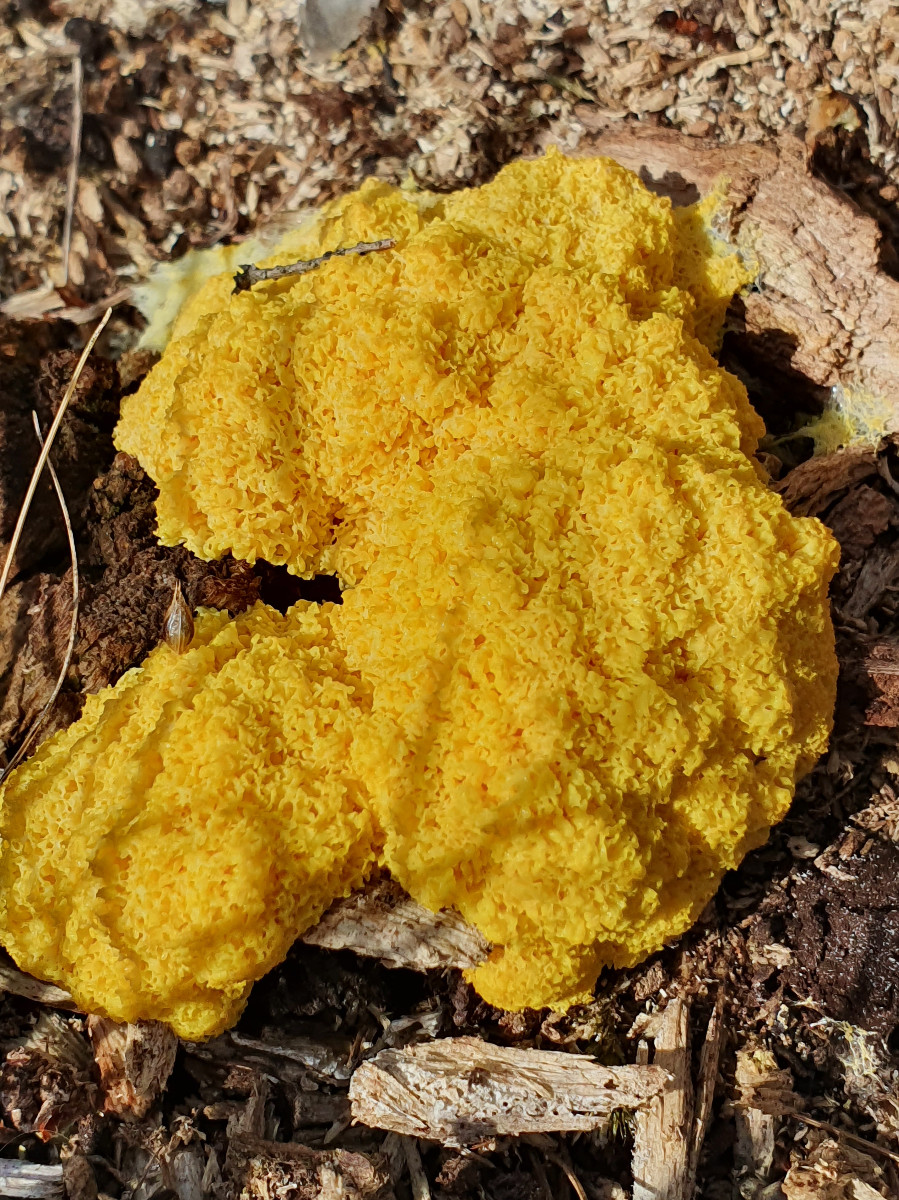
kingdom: Protozoa
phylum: Mycetozoa
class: Myxomycetes
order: Physarales
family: Physaraceae
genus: Fuligo
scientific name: Fuligo septica
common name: gul troldsmør
